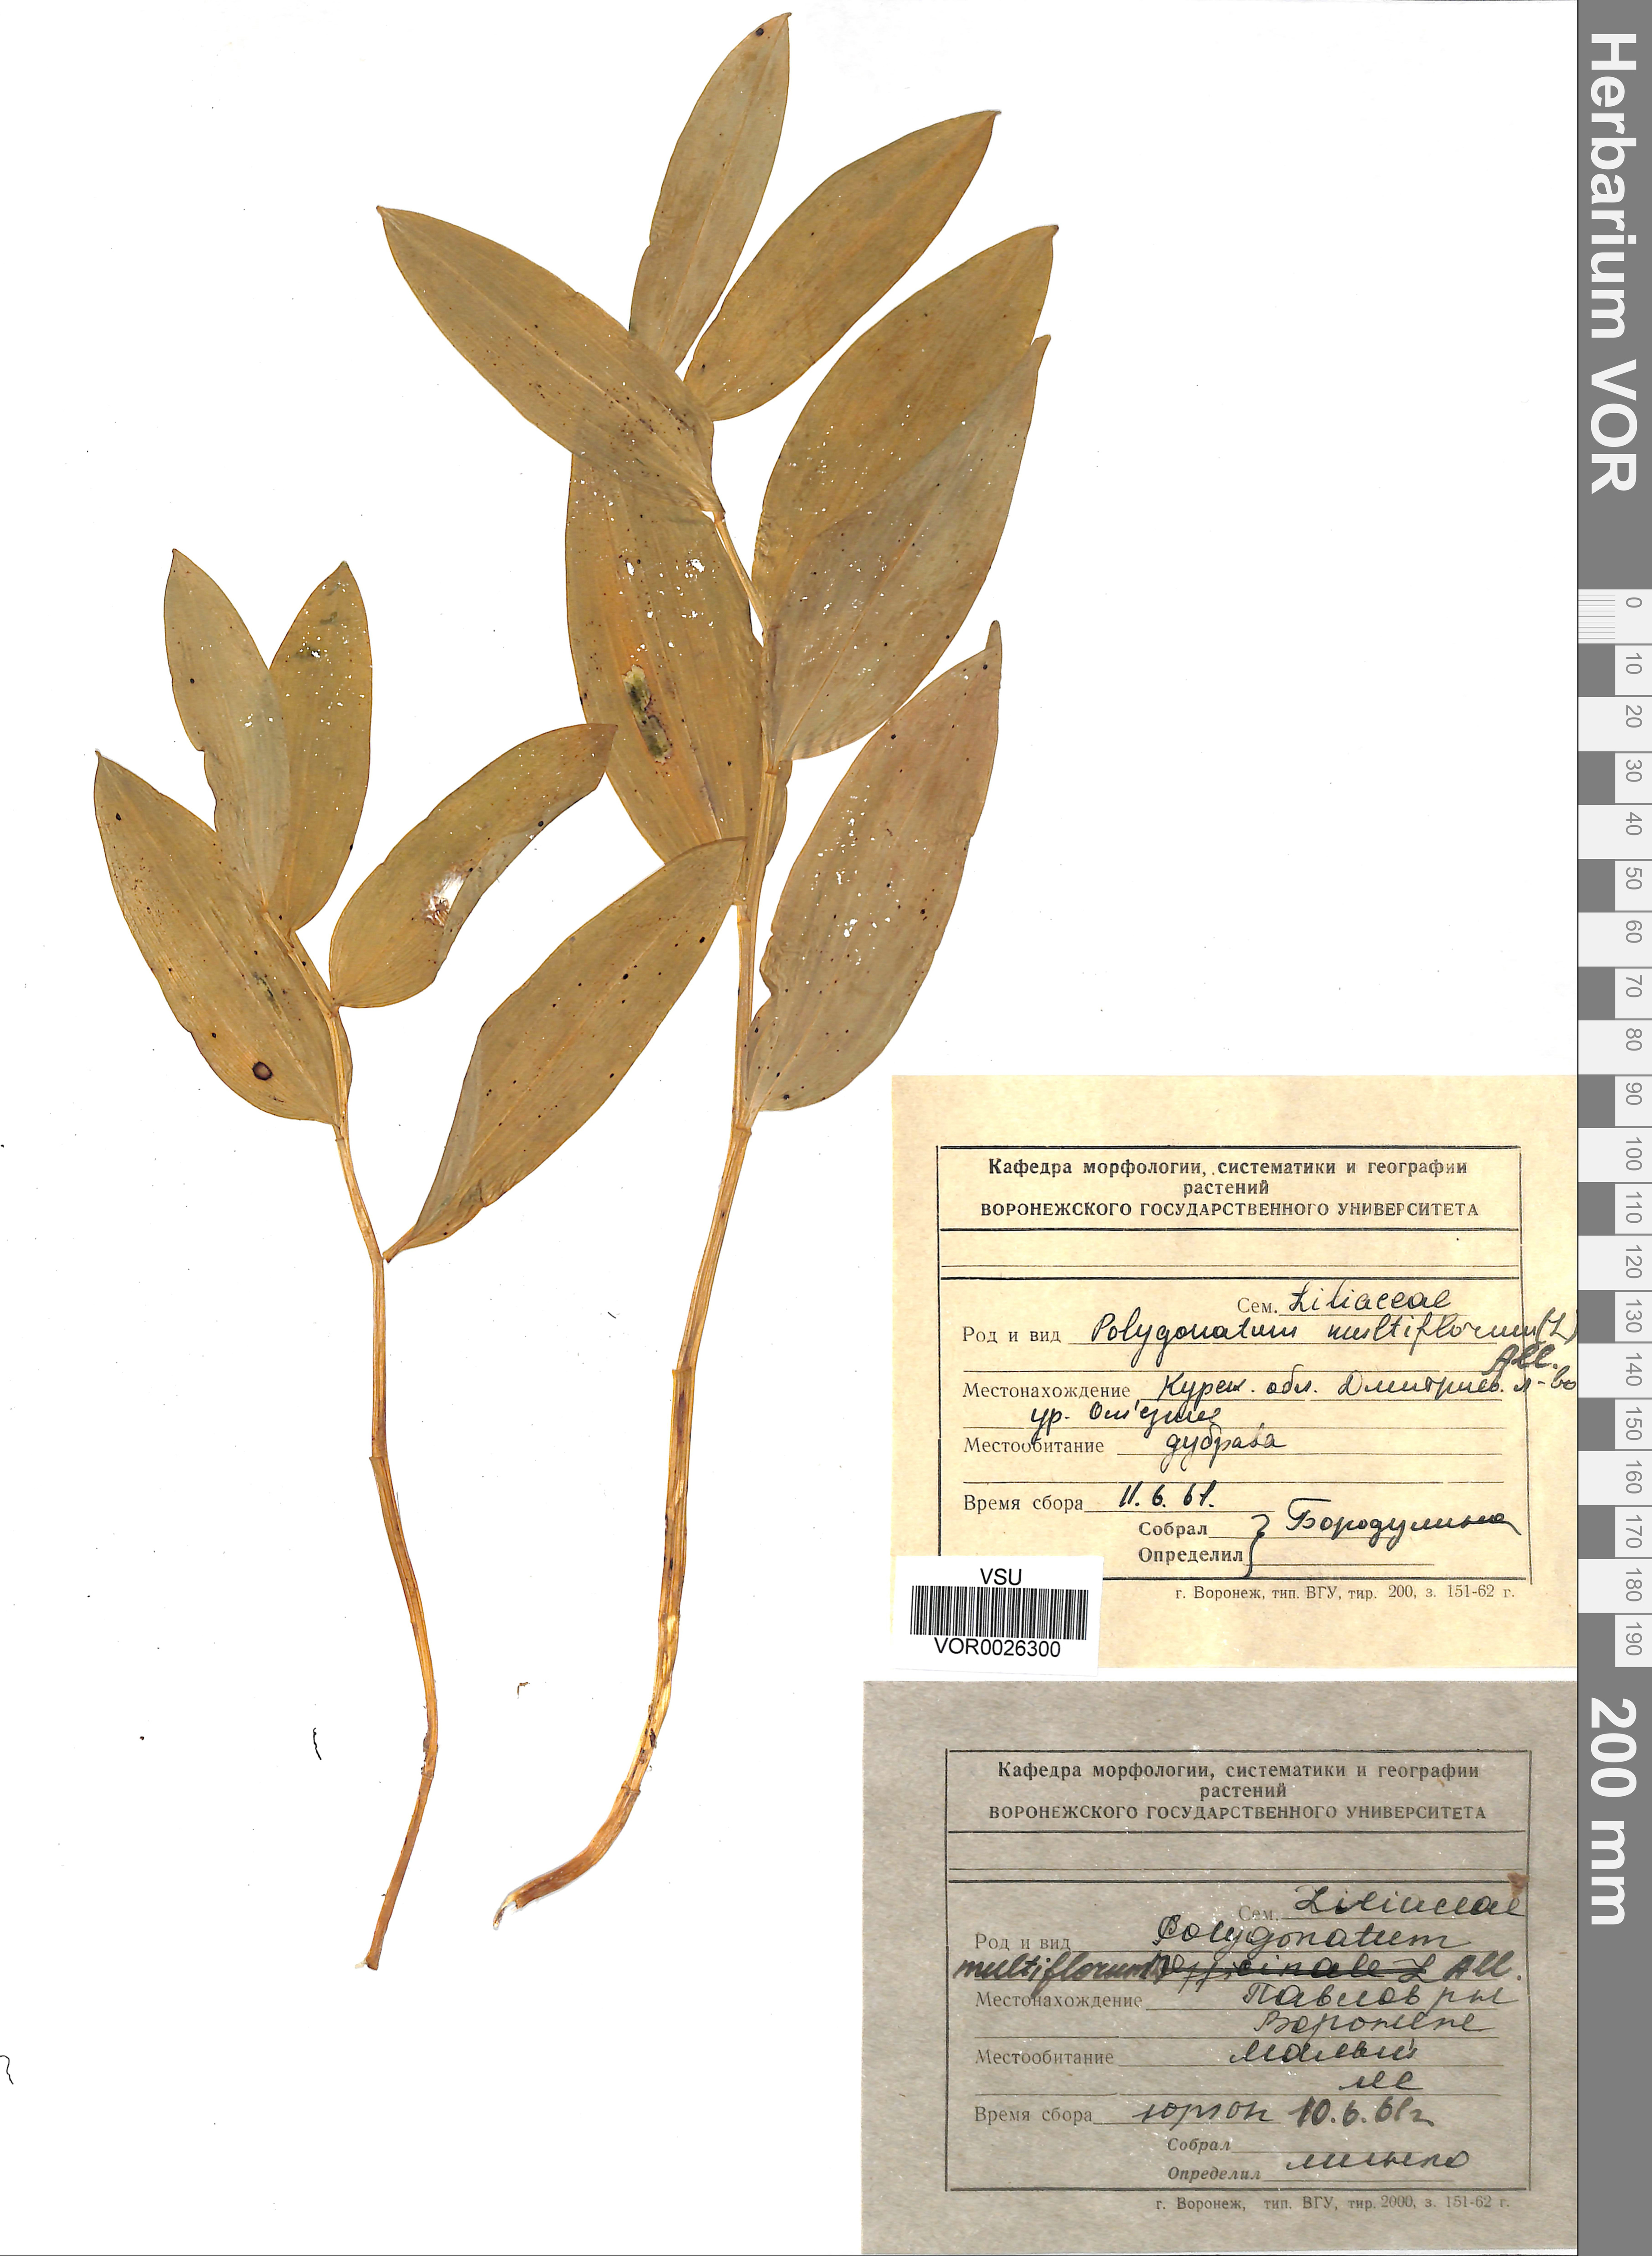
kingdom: Plantae
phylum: Tracheophyta
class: Liliopsida
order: Asparagales
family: Asparagaceae
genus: Polygonatum
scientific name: Polygonatum multiflorum
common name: Solomon's-seal
